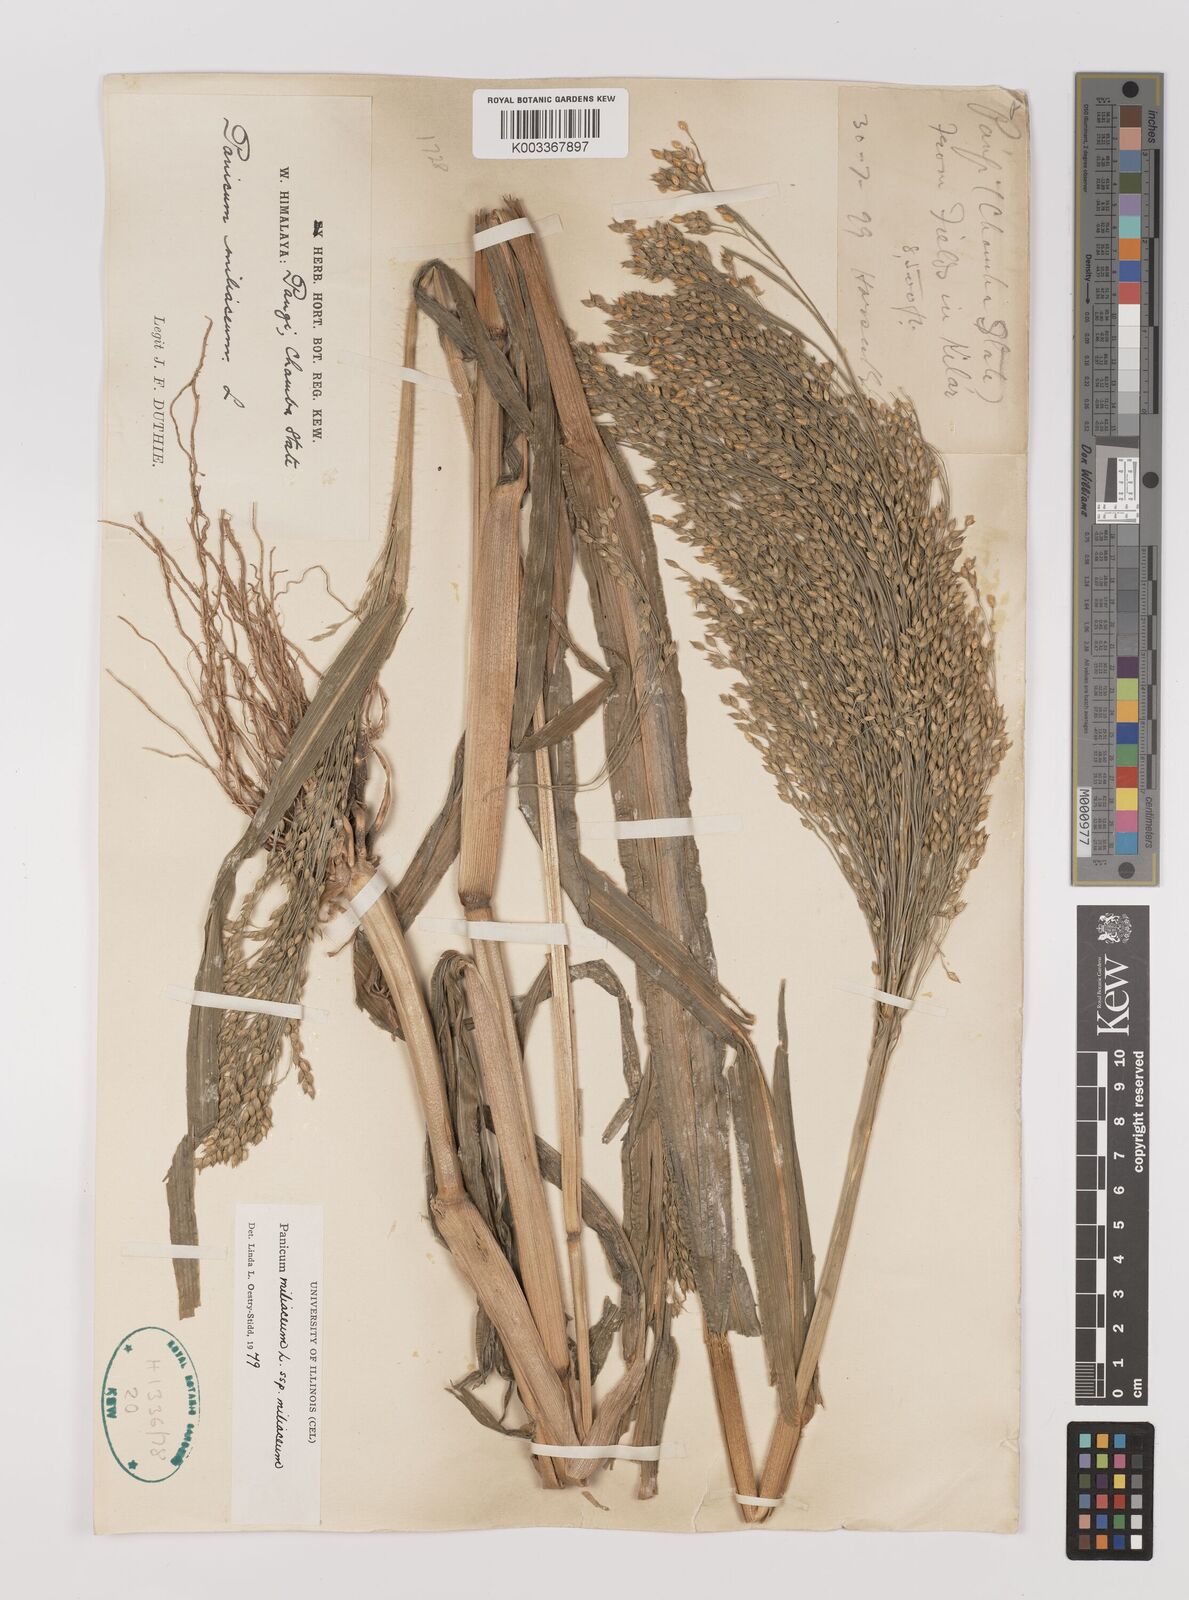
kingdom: Plantae
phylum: Tracheophyta
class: Liliopsida
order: Poales
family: Poaceae
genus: Panicum
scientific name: Panicum miliaceum
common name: Common millet
